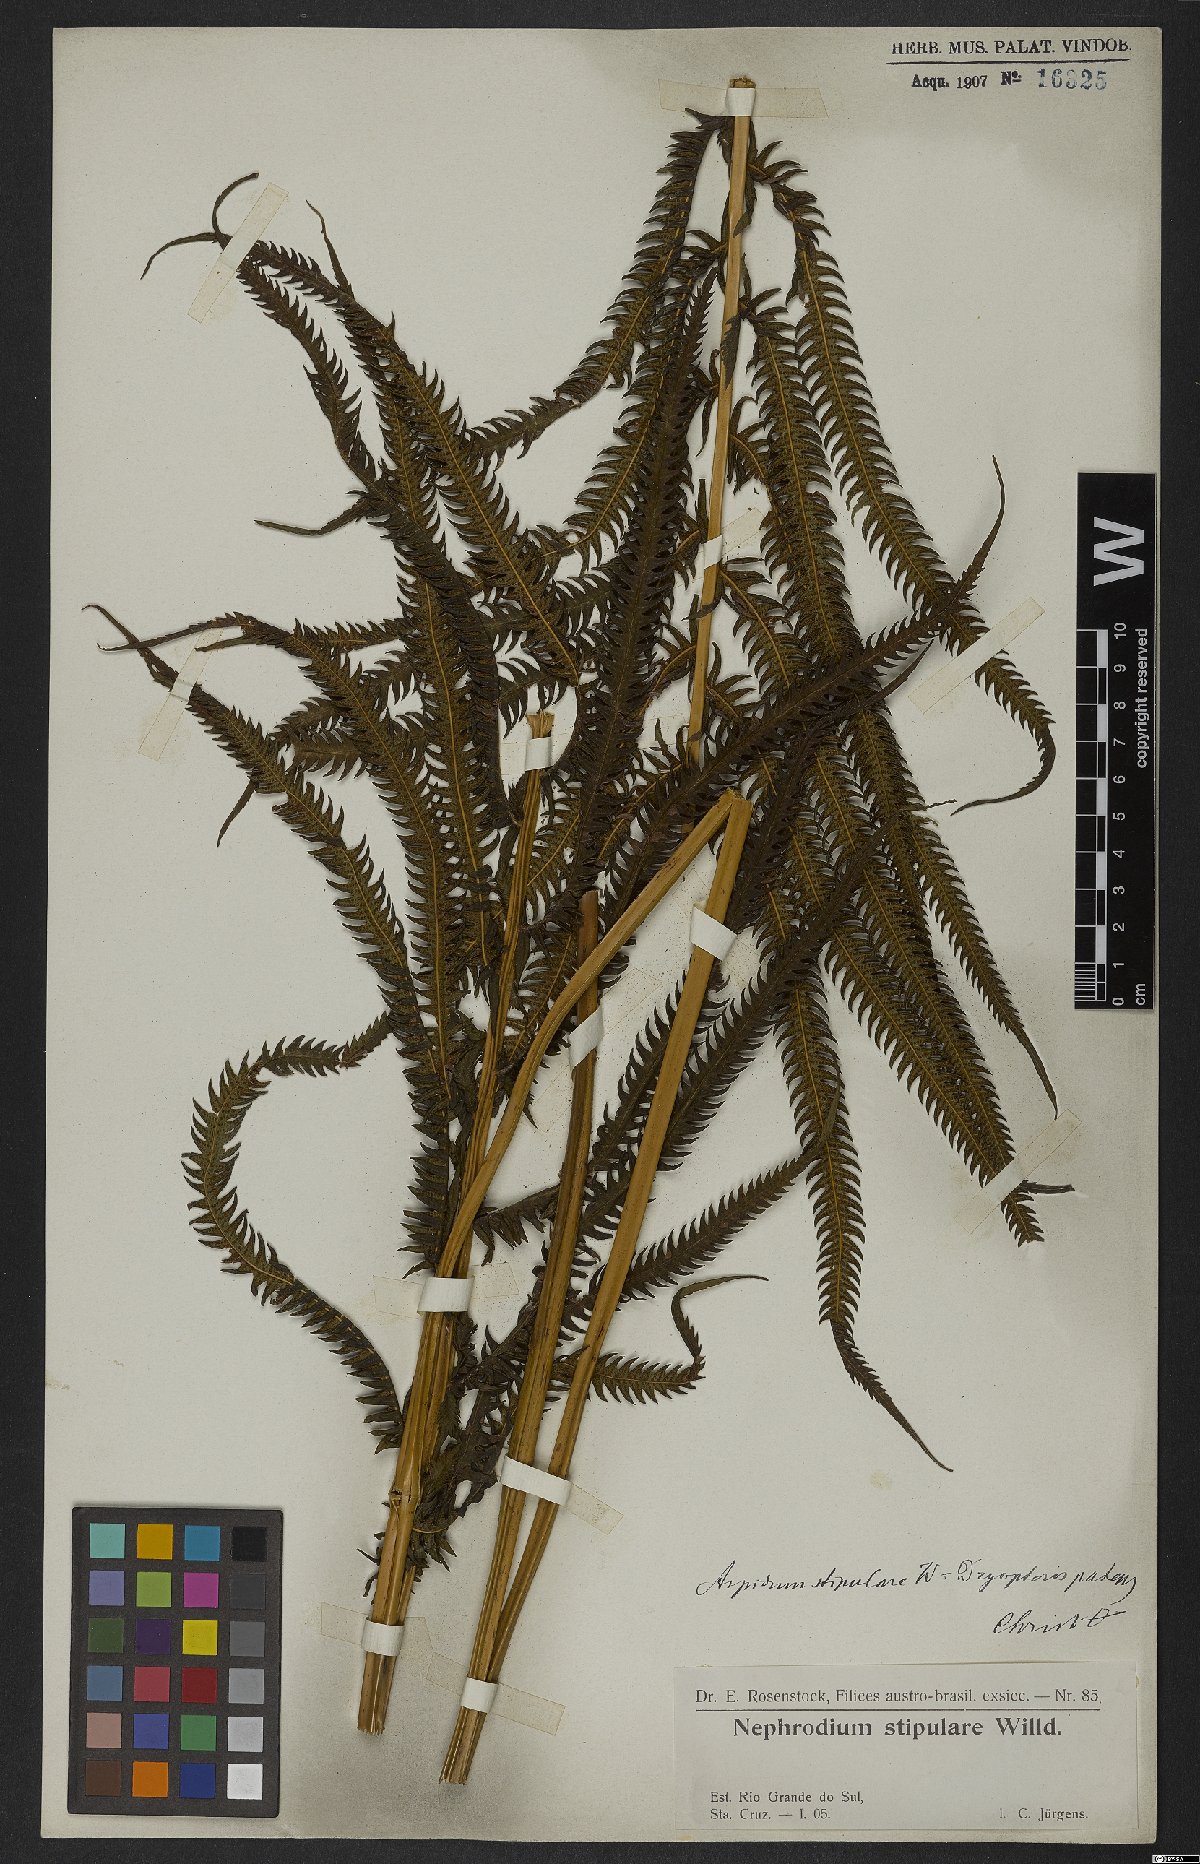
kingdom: Plantae
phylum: Tracheophyta
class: Polypodiopsida
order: Polypodiales
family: Dryopteridaceae
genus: Dryopteris
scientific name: Dryopteris patula
